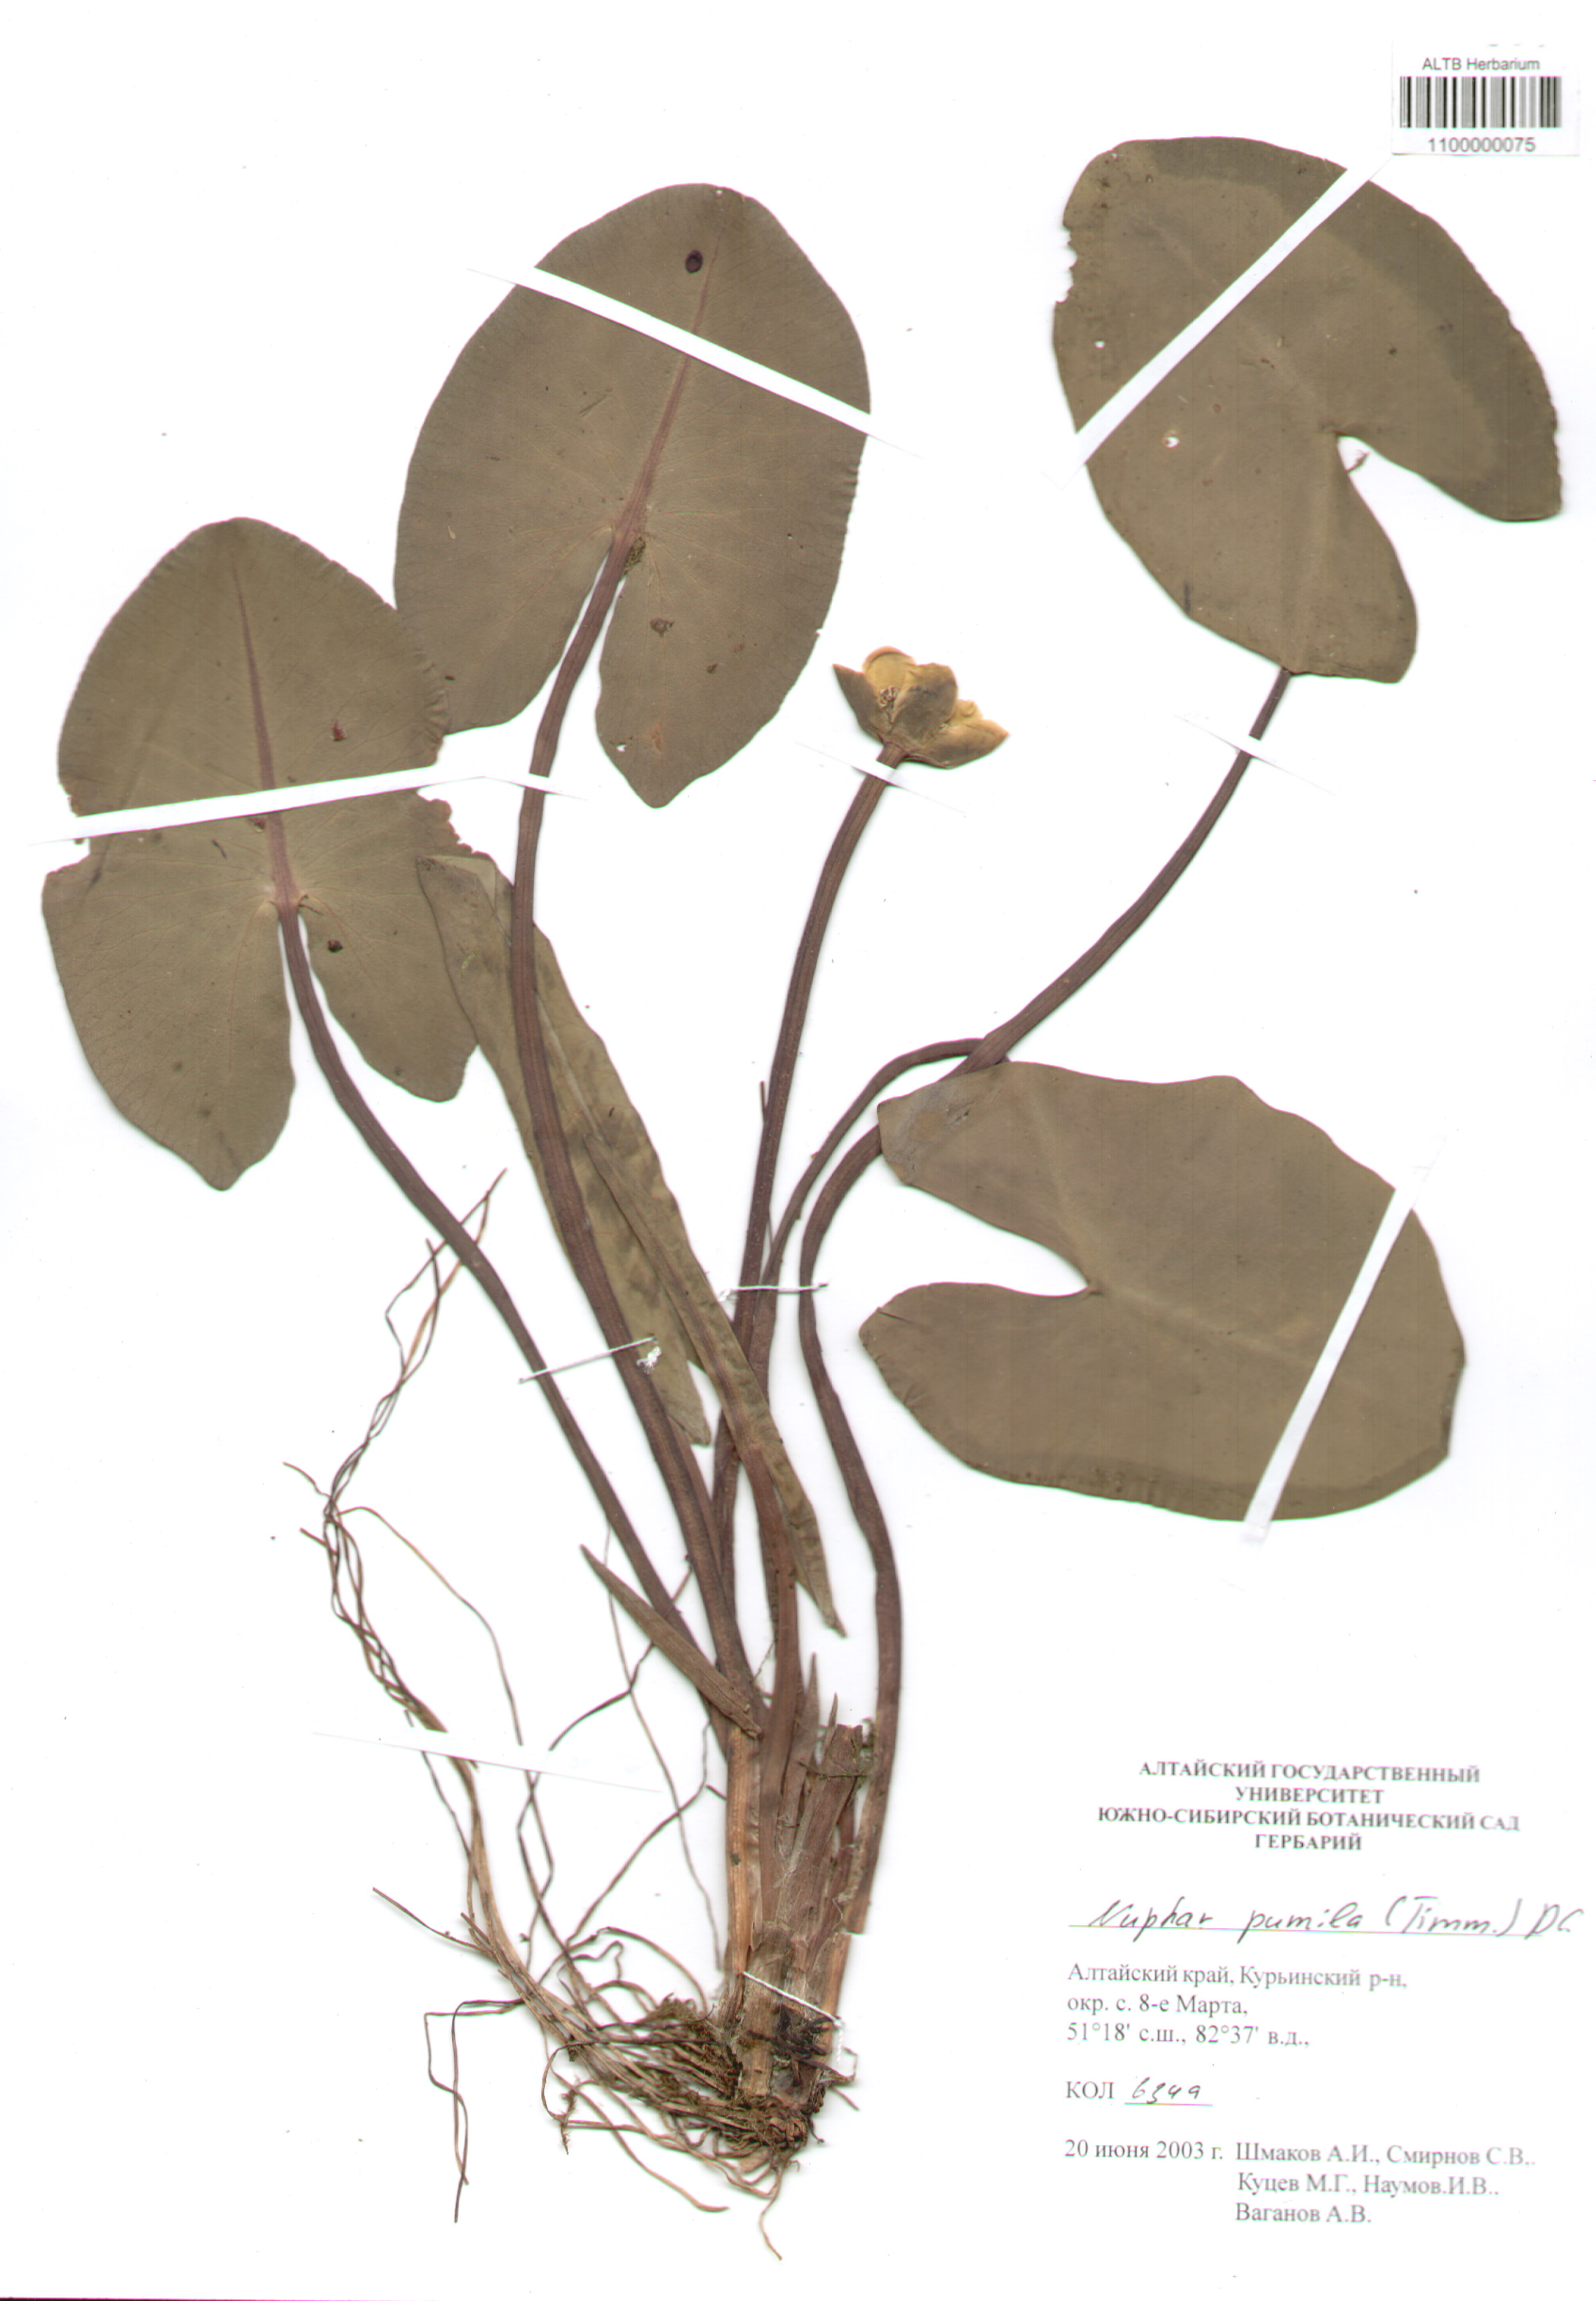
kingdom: Plantae
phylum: Tracheophyta
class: Magnoliopsida
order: Nymphaeales
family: Nymphaeaceae
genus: Nuphar
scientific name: Nuphar pumila
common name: Least water-lily
